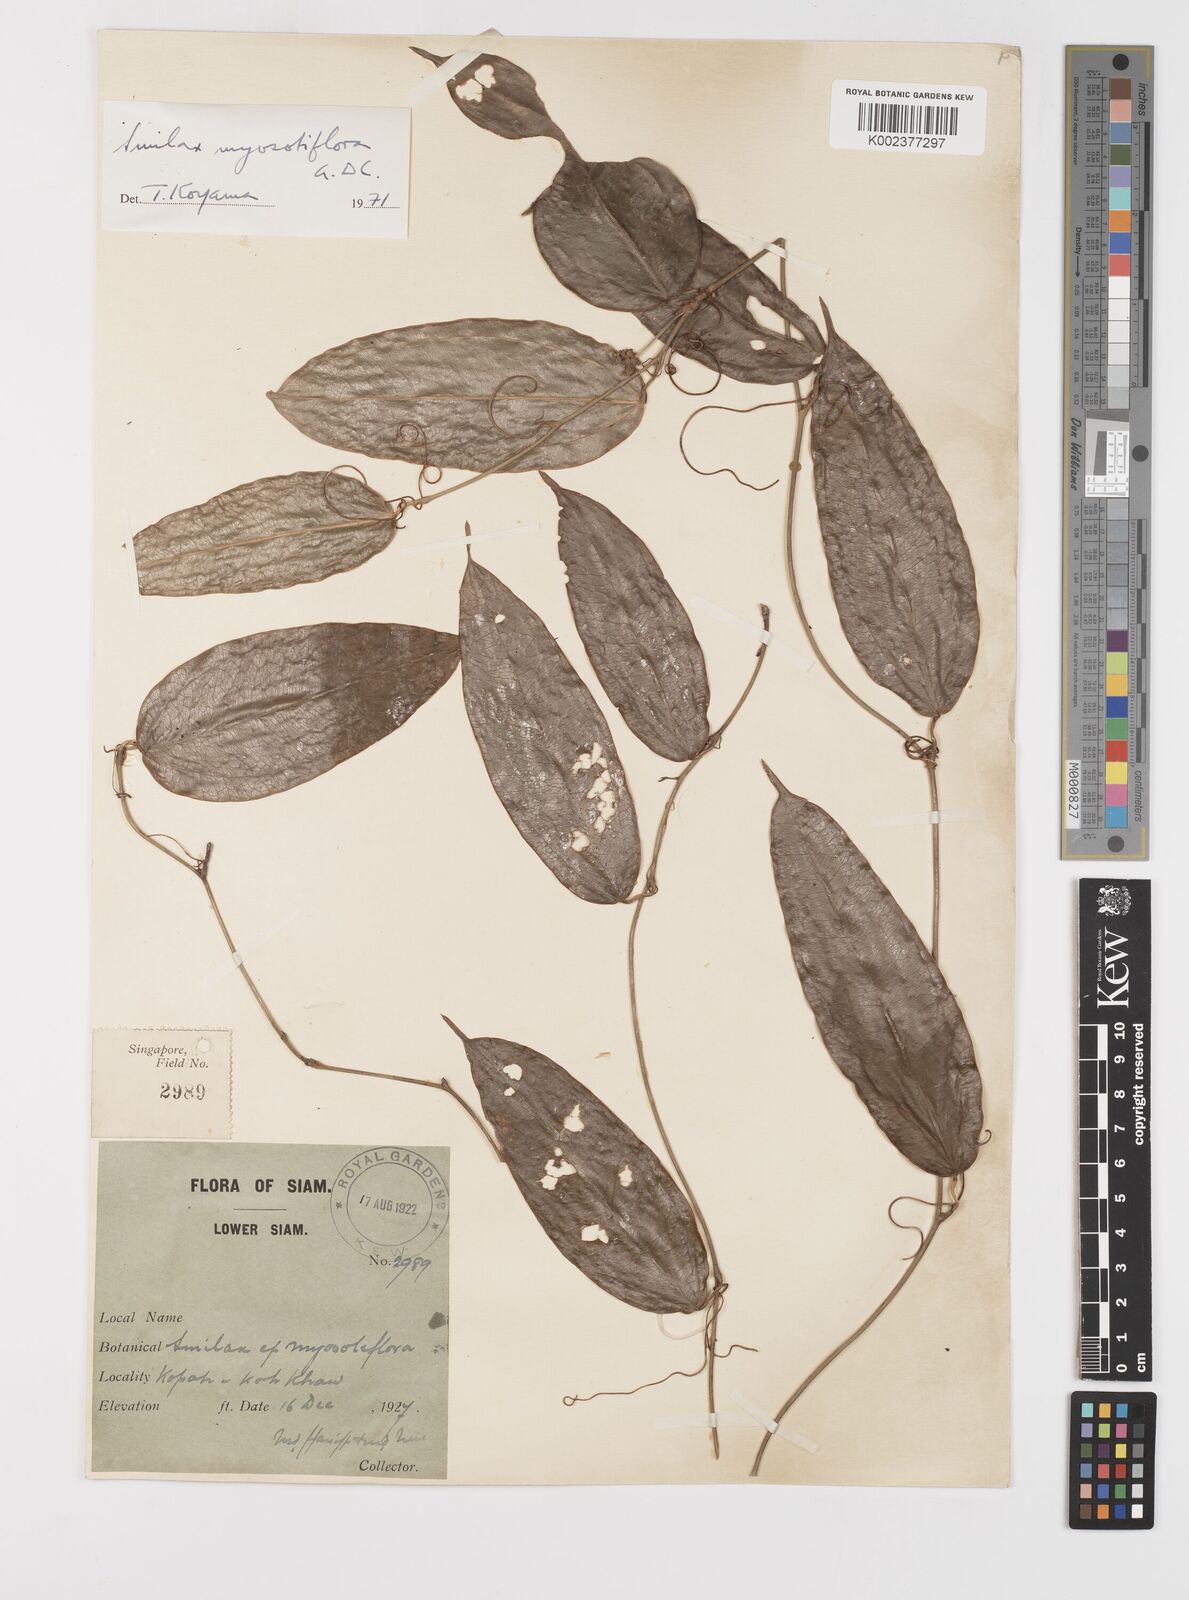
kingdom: Plantae
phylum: Tracheophyta
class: Liliopsida
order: Liliales
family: Smilacaceae
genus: Smilax
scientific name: Smilax myosotiflora
